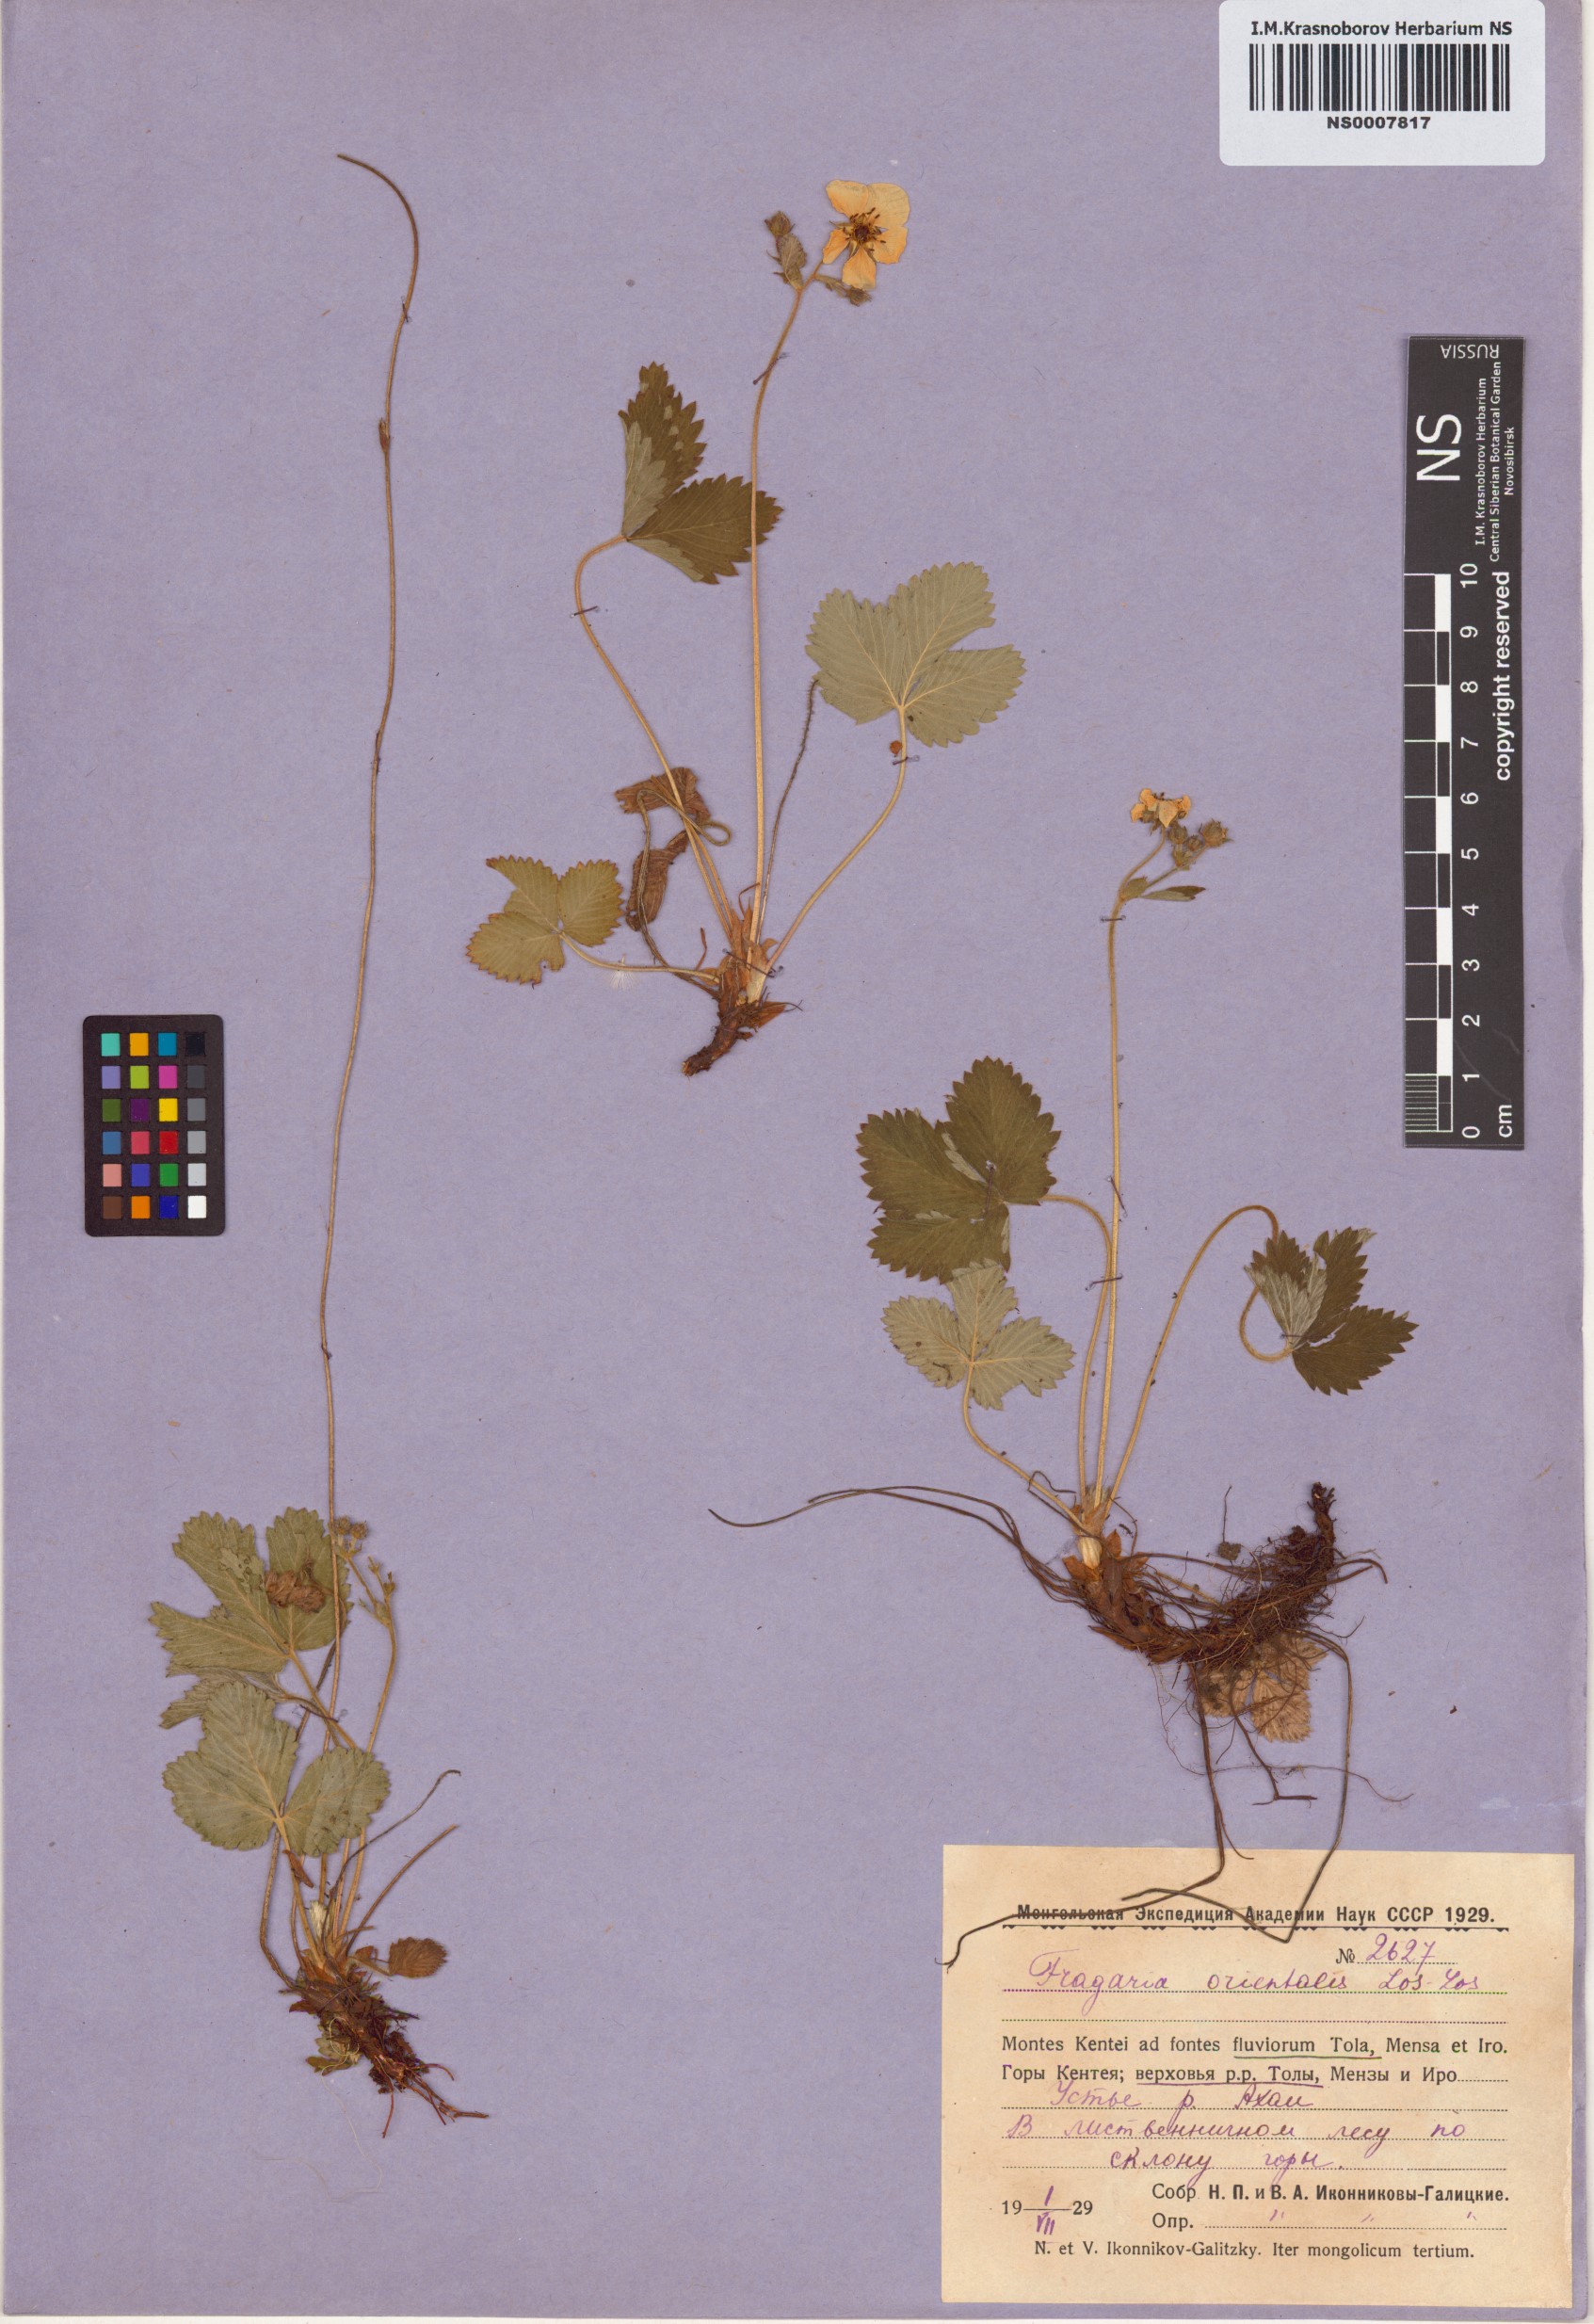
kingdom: Plantae
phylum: Tracheophyta
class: Magnoliopsida
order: Rosales
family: Rosaceae
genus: Fragaria
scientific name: Fragaria orientalis
